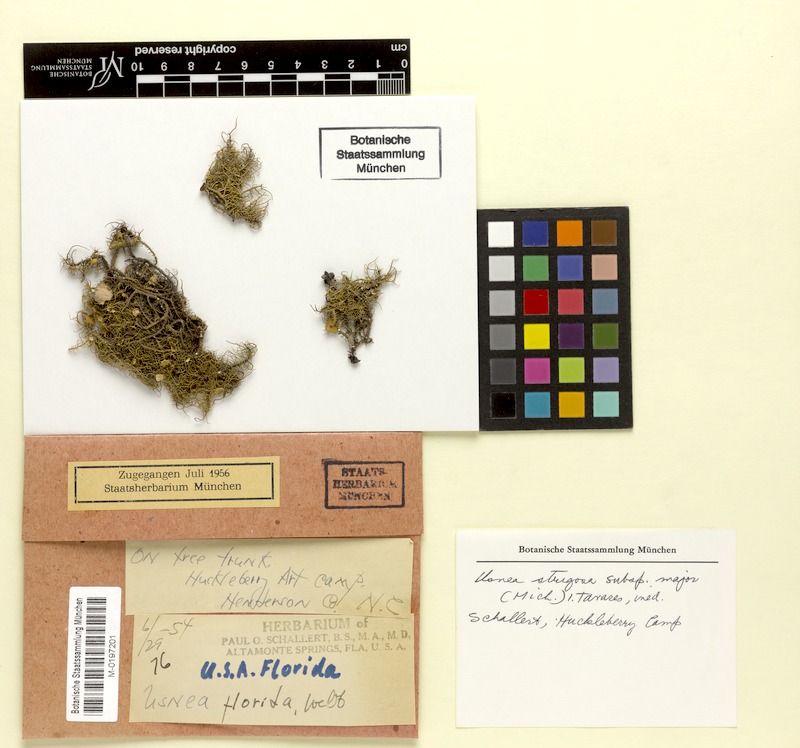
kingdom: Fungi
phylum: Ascomycota
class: Lecanoromycetes
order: Lecanorales
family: Parmeliaceae
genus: Usnea
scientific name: Usnea strigosa
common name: Bushy beard lichen
